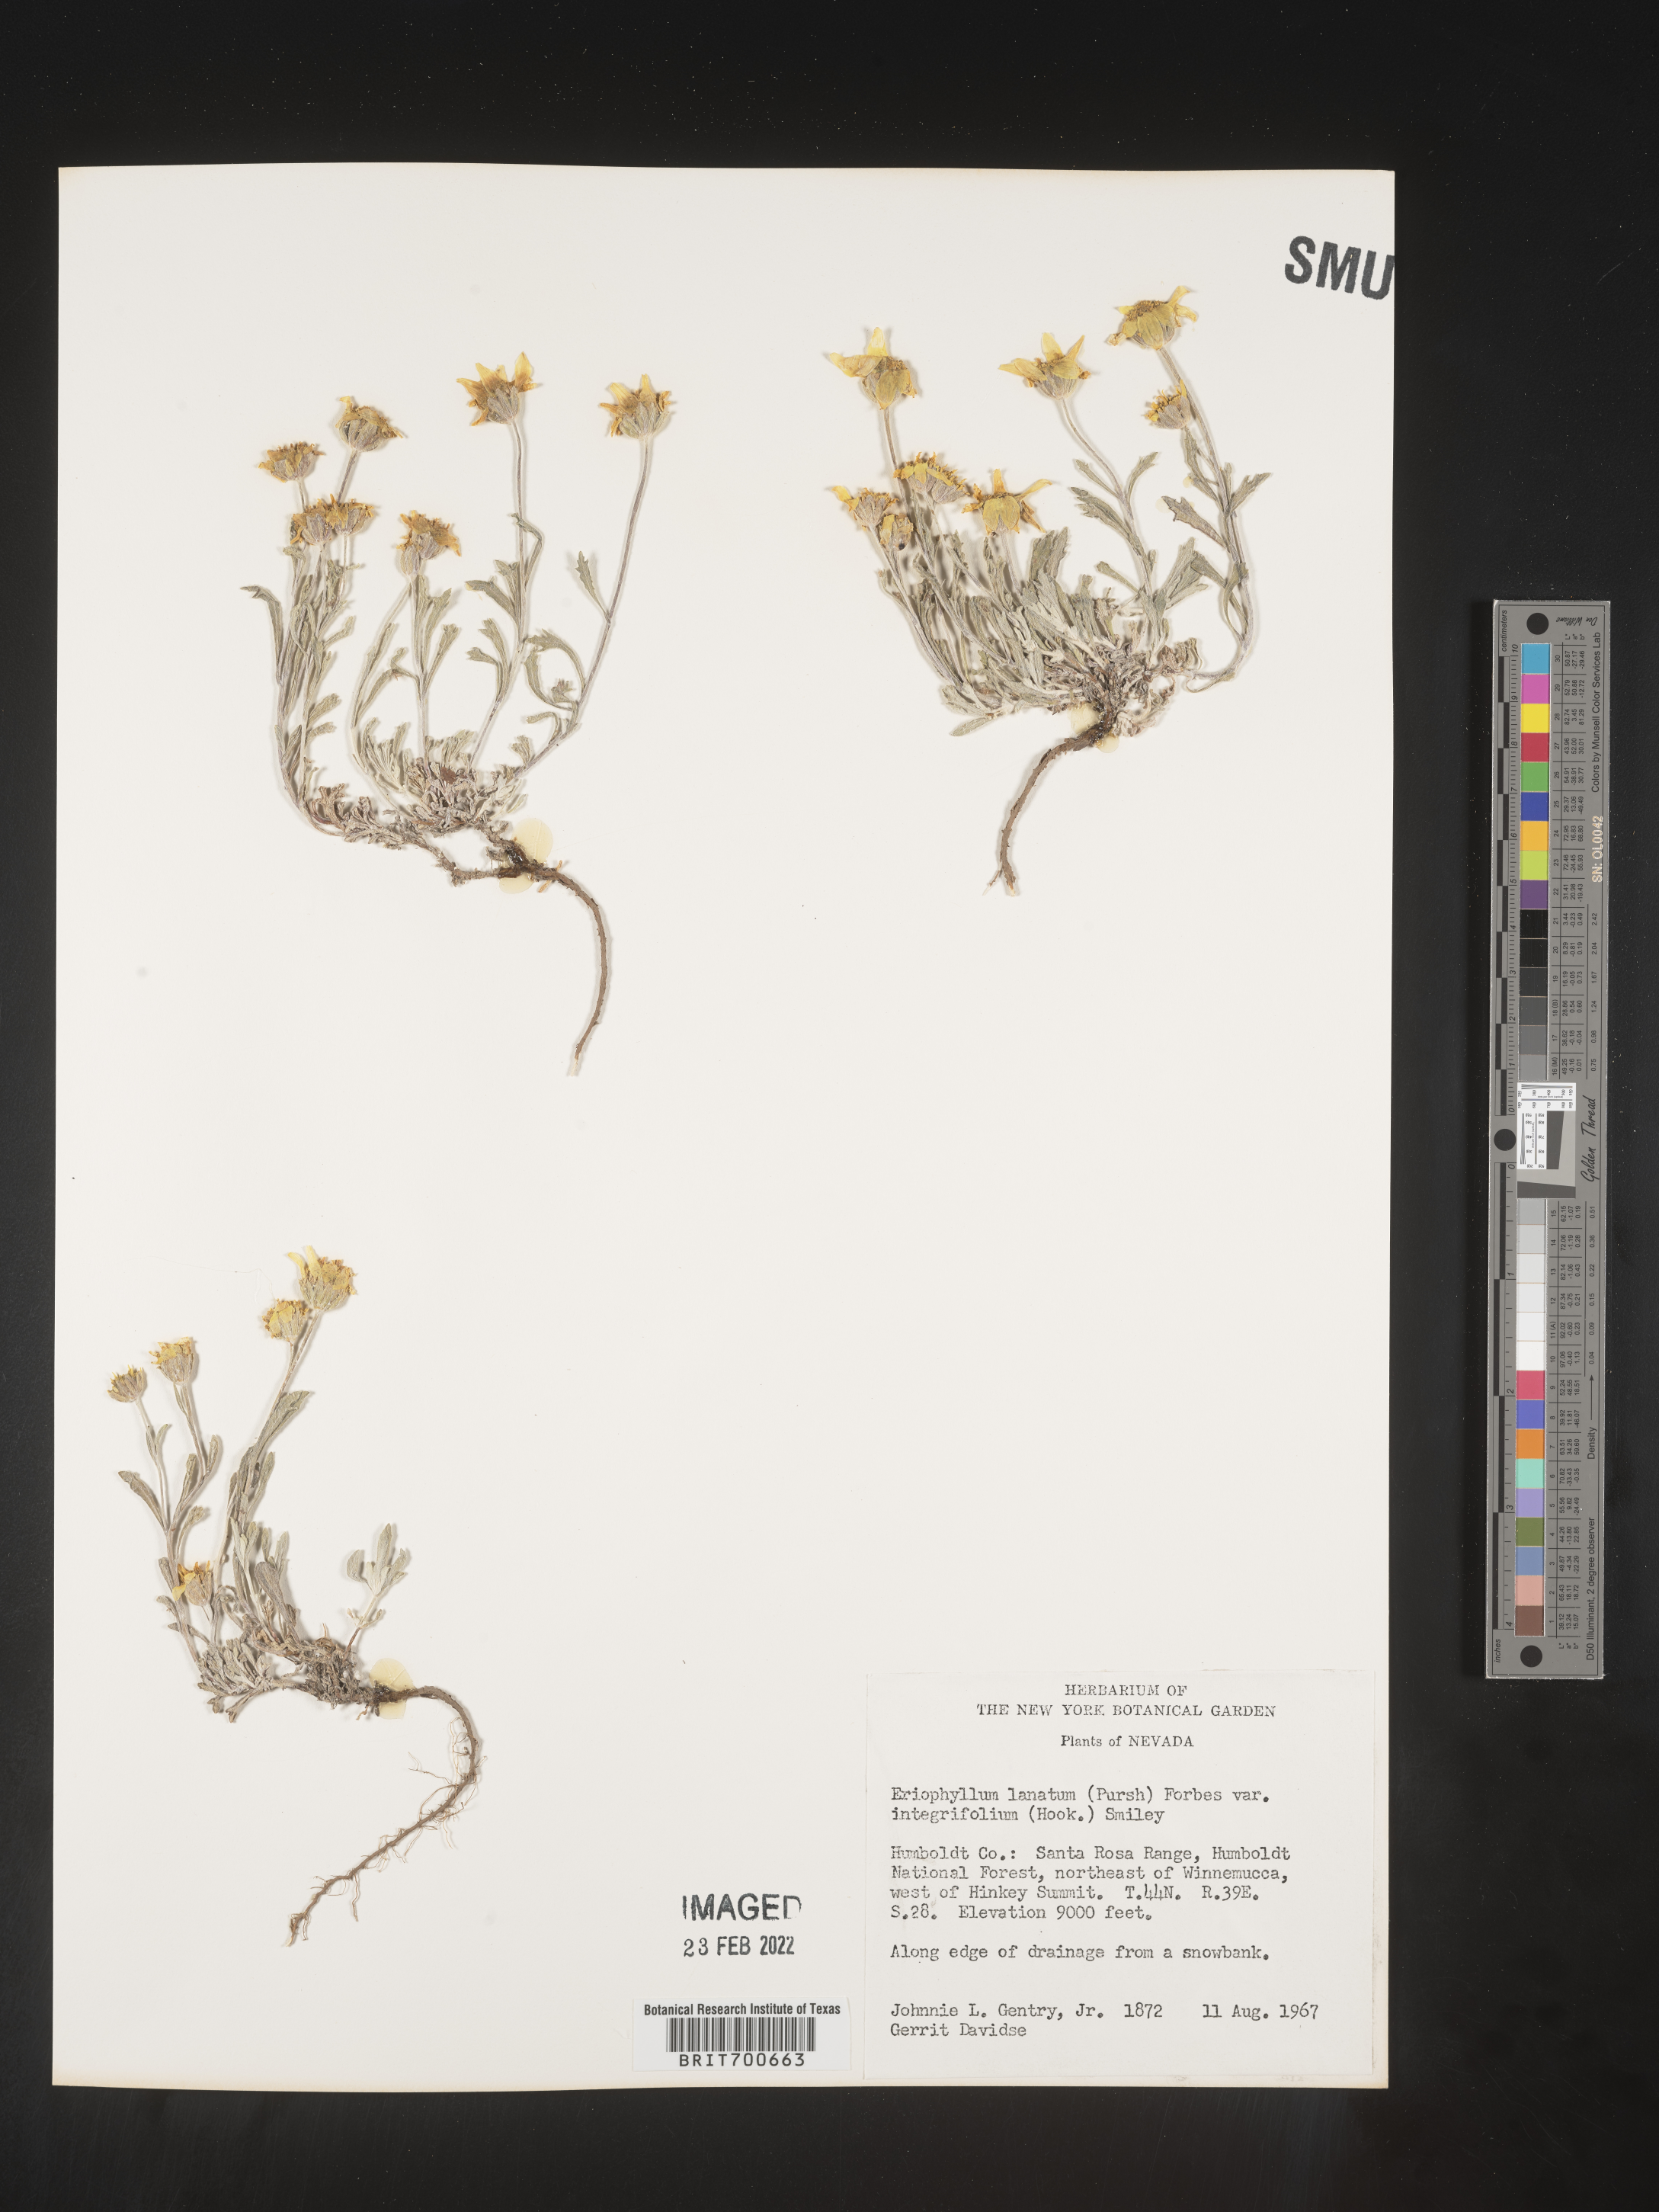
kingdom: Plantae
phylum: Tracheophyta
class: Magnoliopsida
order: Asterales
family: Asteraceae
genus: Eriophyllum
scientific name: Eriophyllum lanatum
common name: Common woolly-sunflower
